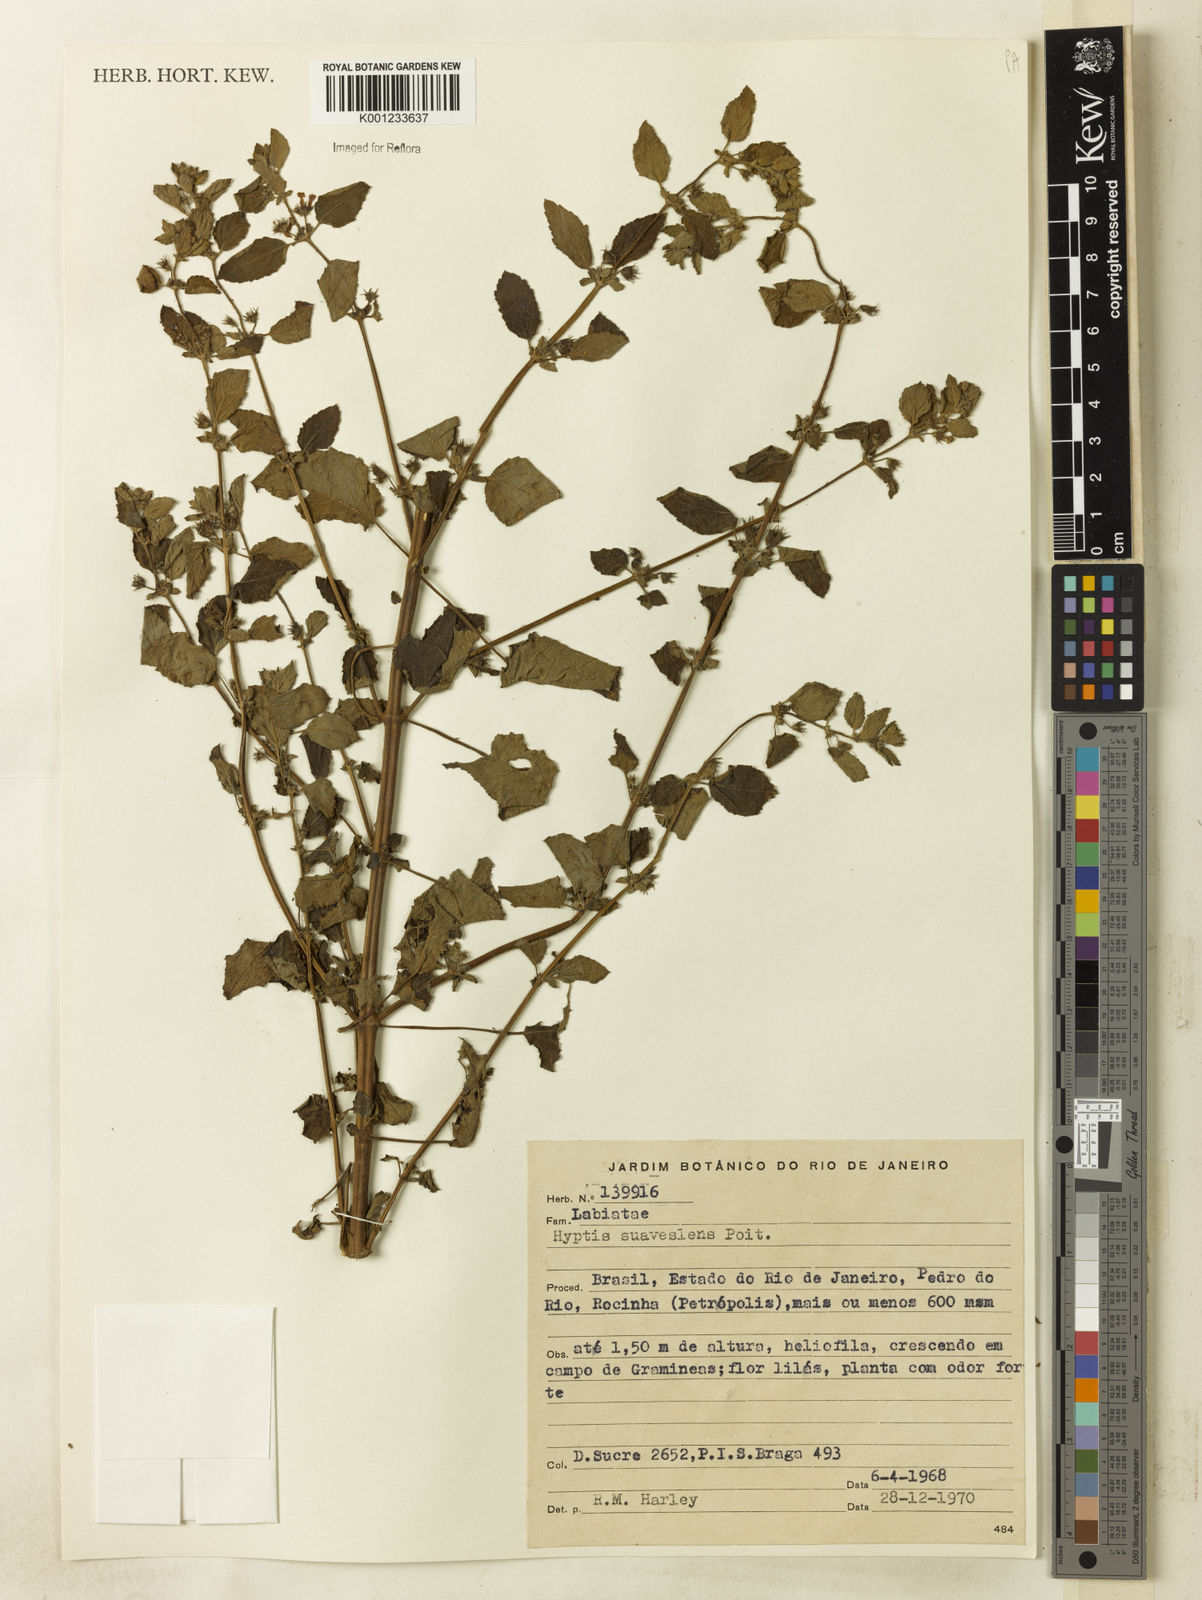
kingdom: Plantae
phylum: Tracheophyta
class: Magnoliopsida
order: Lamiales
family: Lamiaceae
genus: Mesosphaerum
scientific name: Mesosphaerum suaveolens
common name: Pignut
